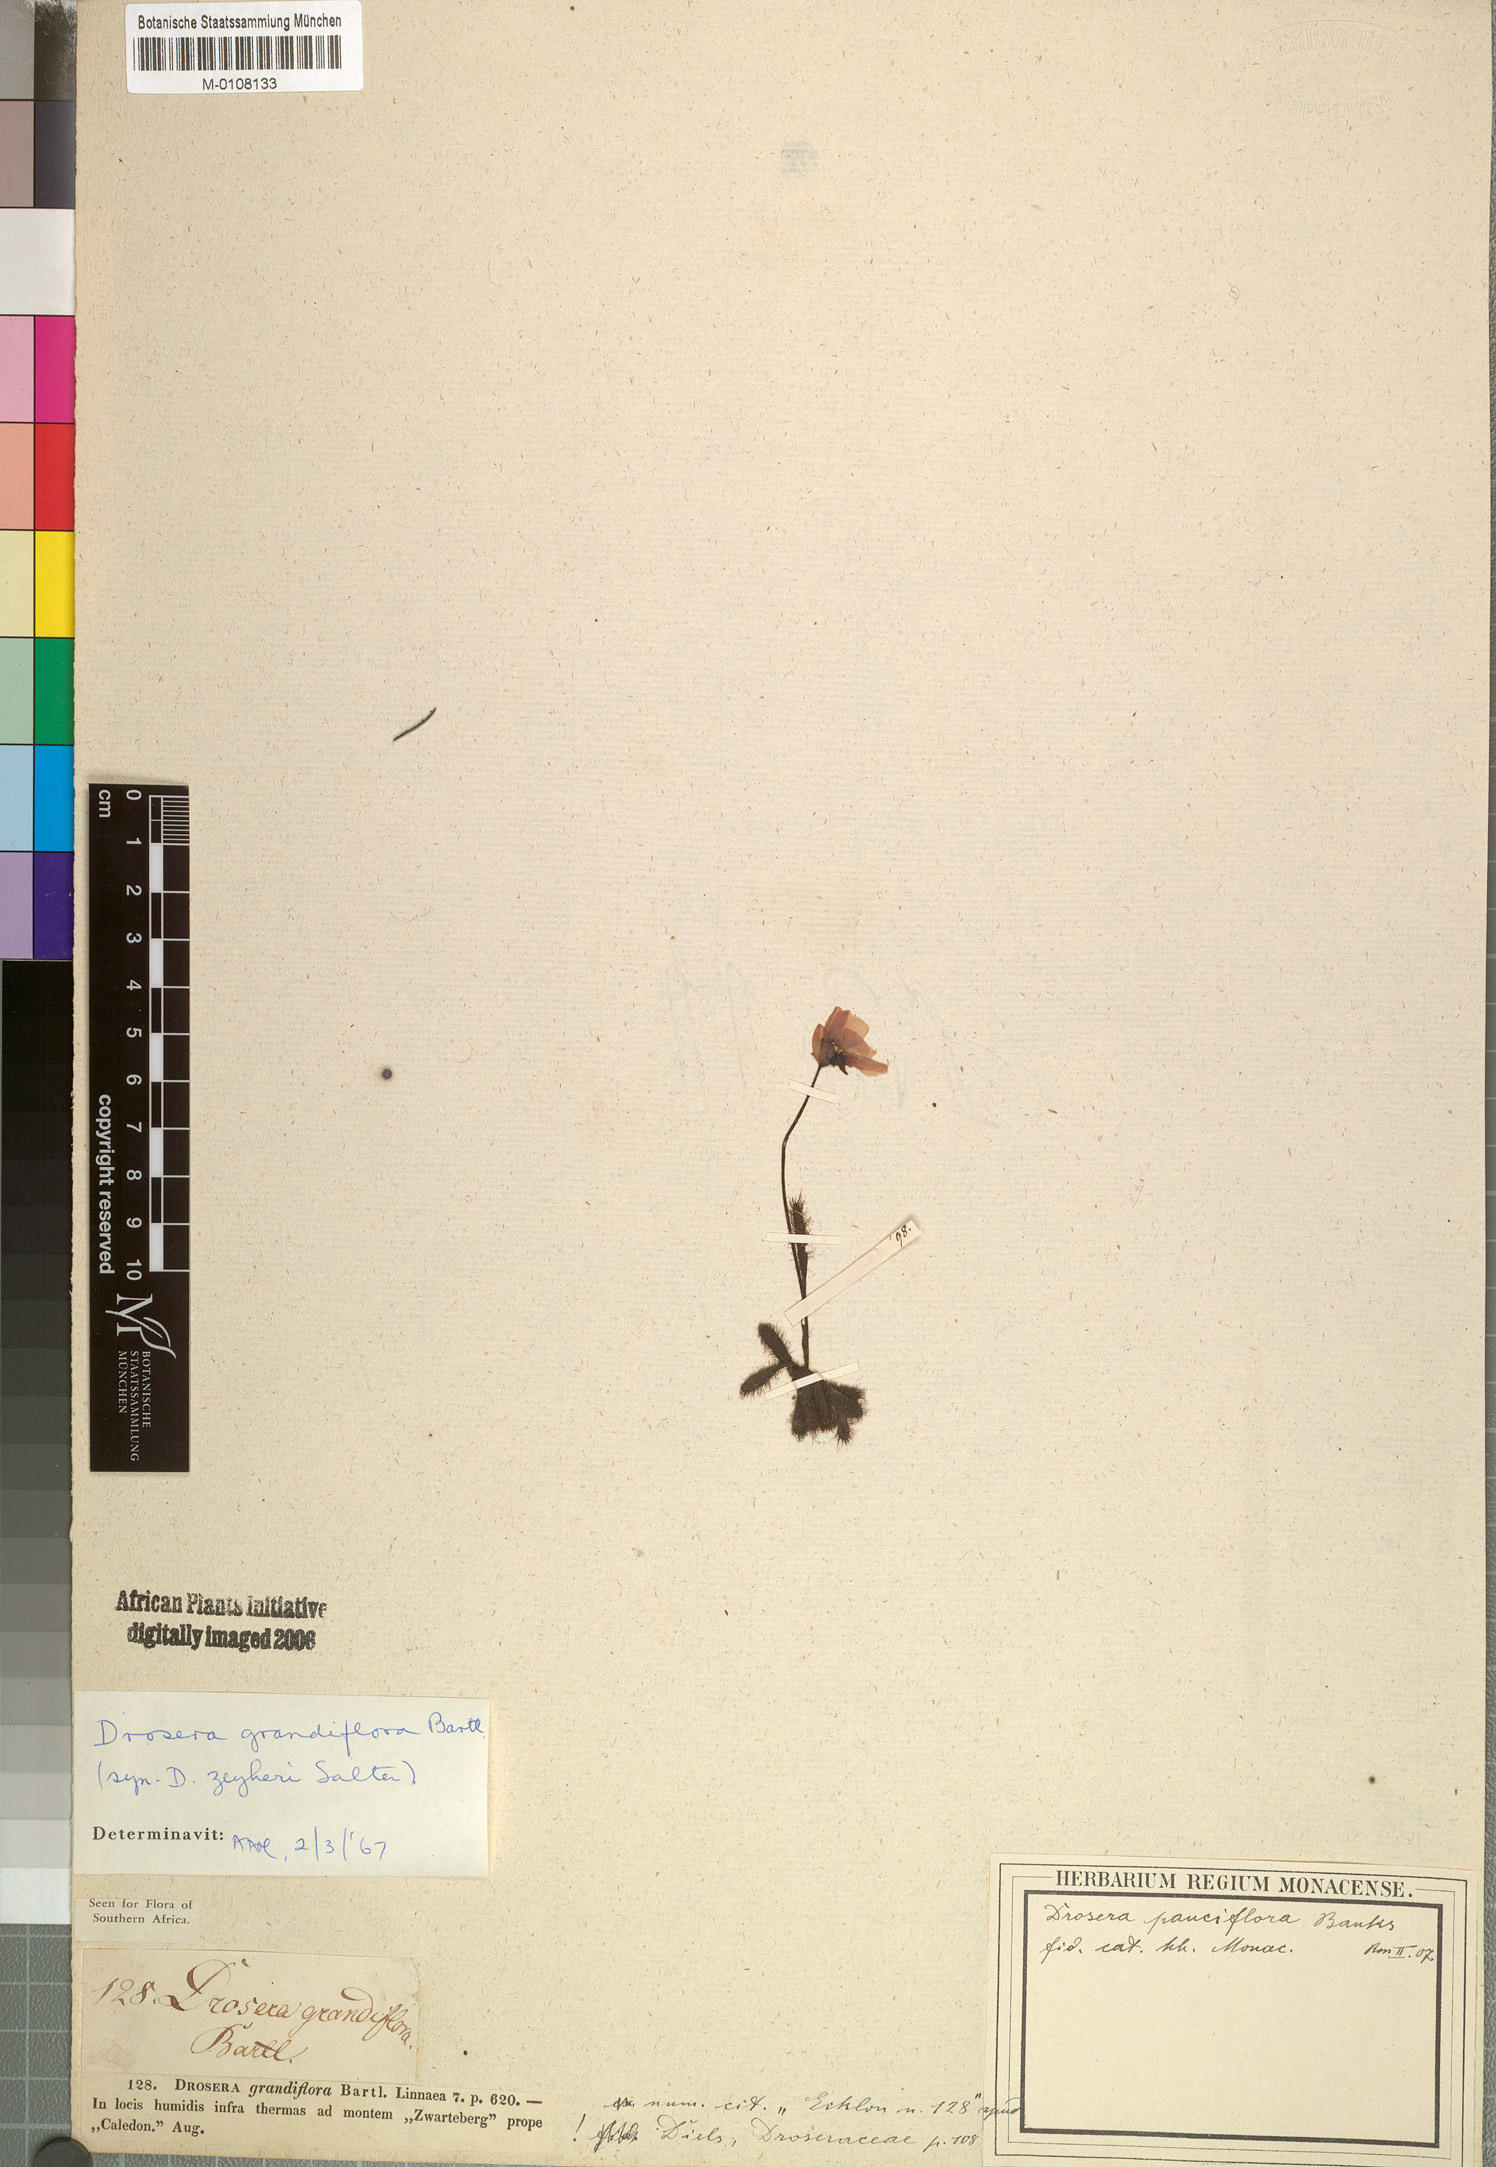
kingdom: Plantae
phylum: Tracheophyta
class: Magnoliopsida
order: Caryophyllales
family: Droseraceae
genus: Drosera
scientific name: Drosera cistiflora
